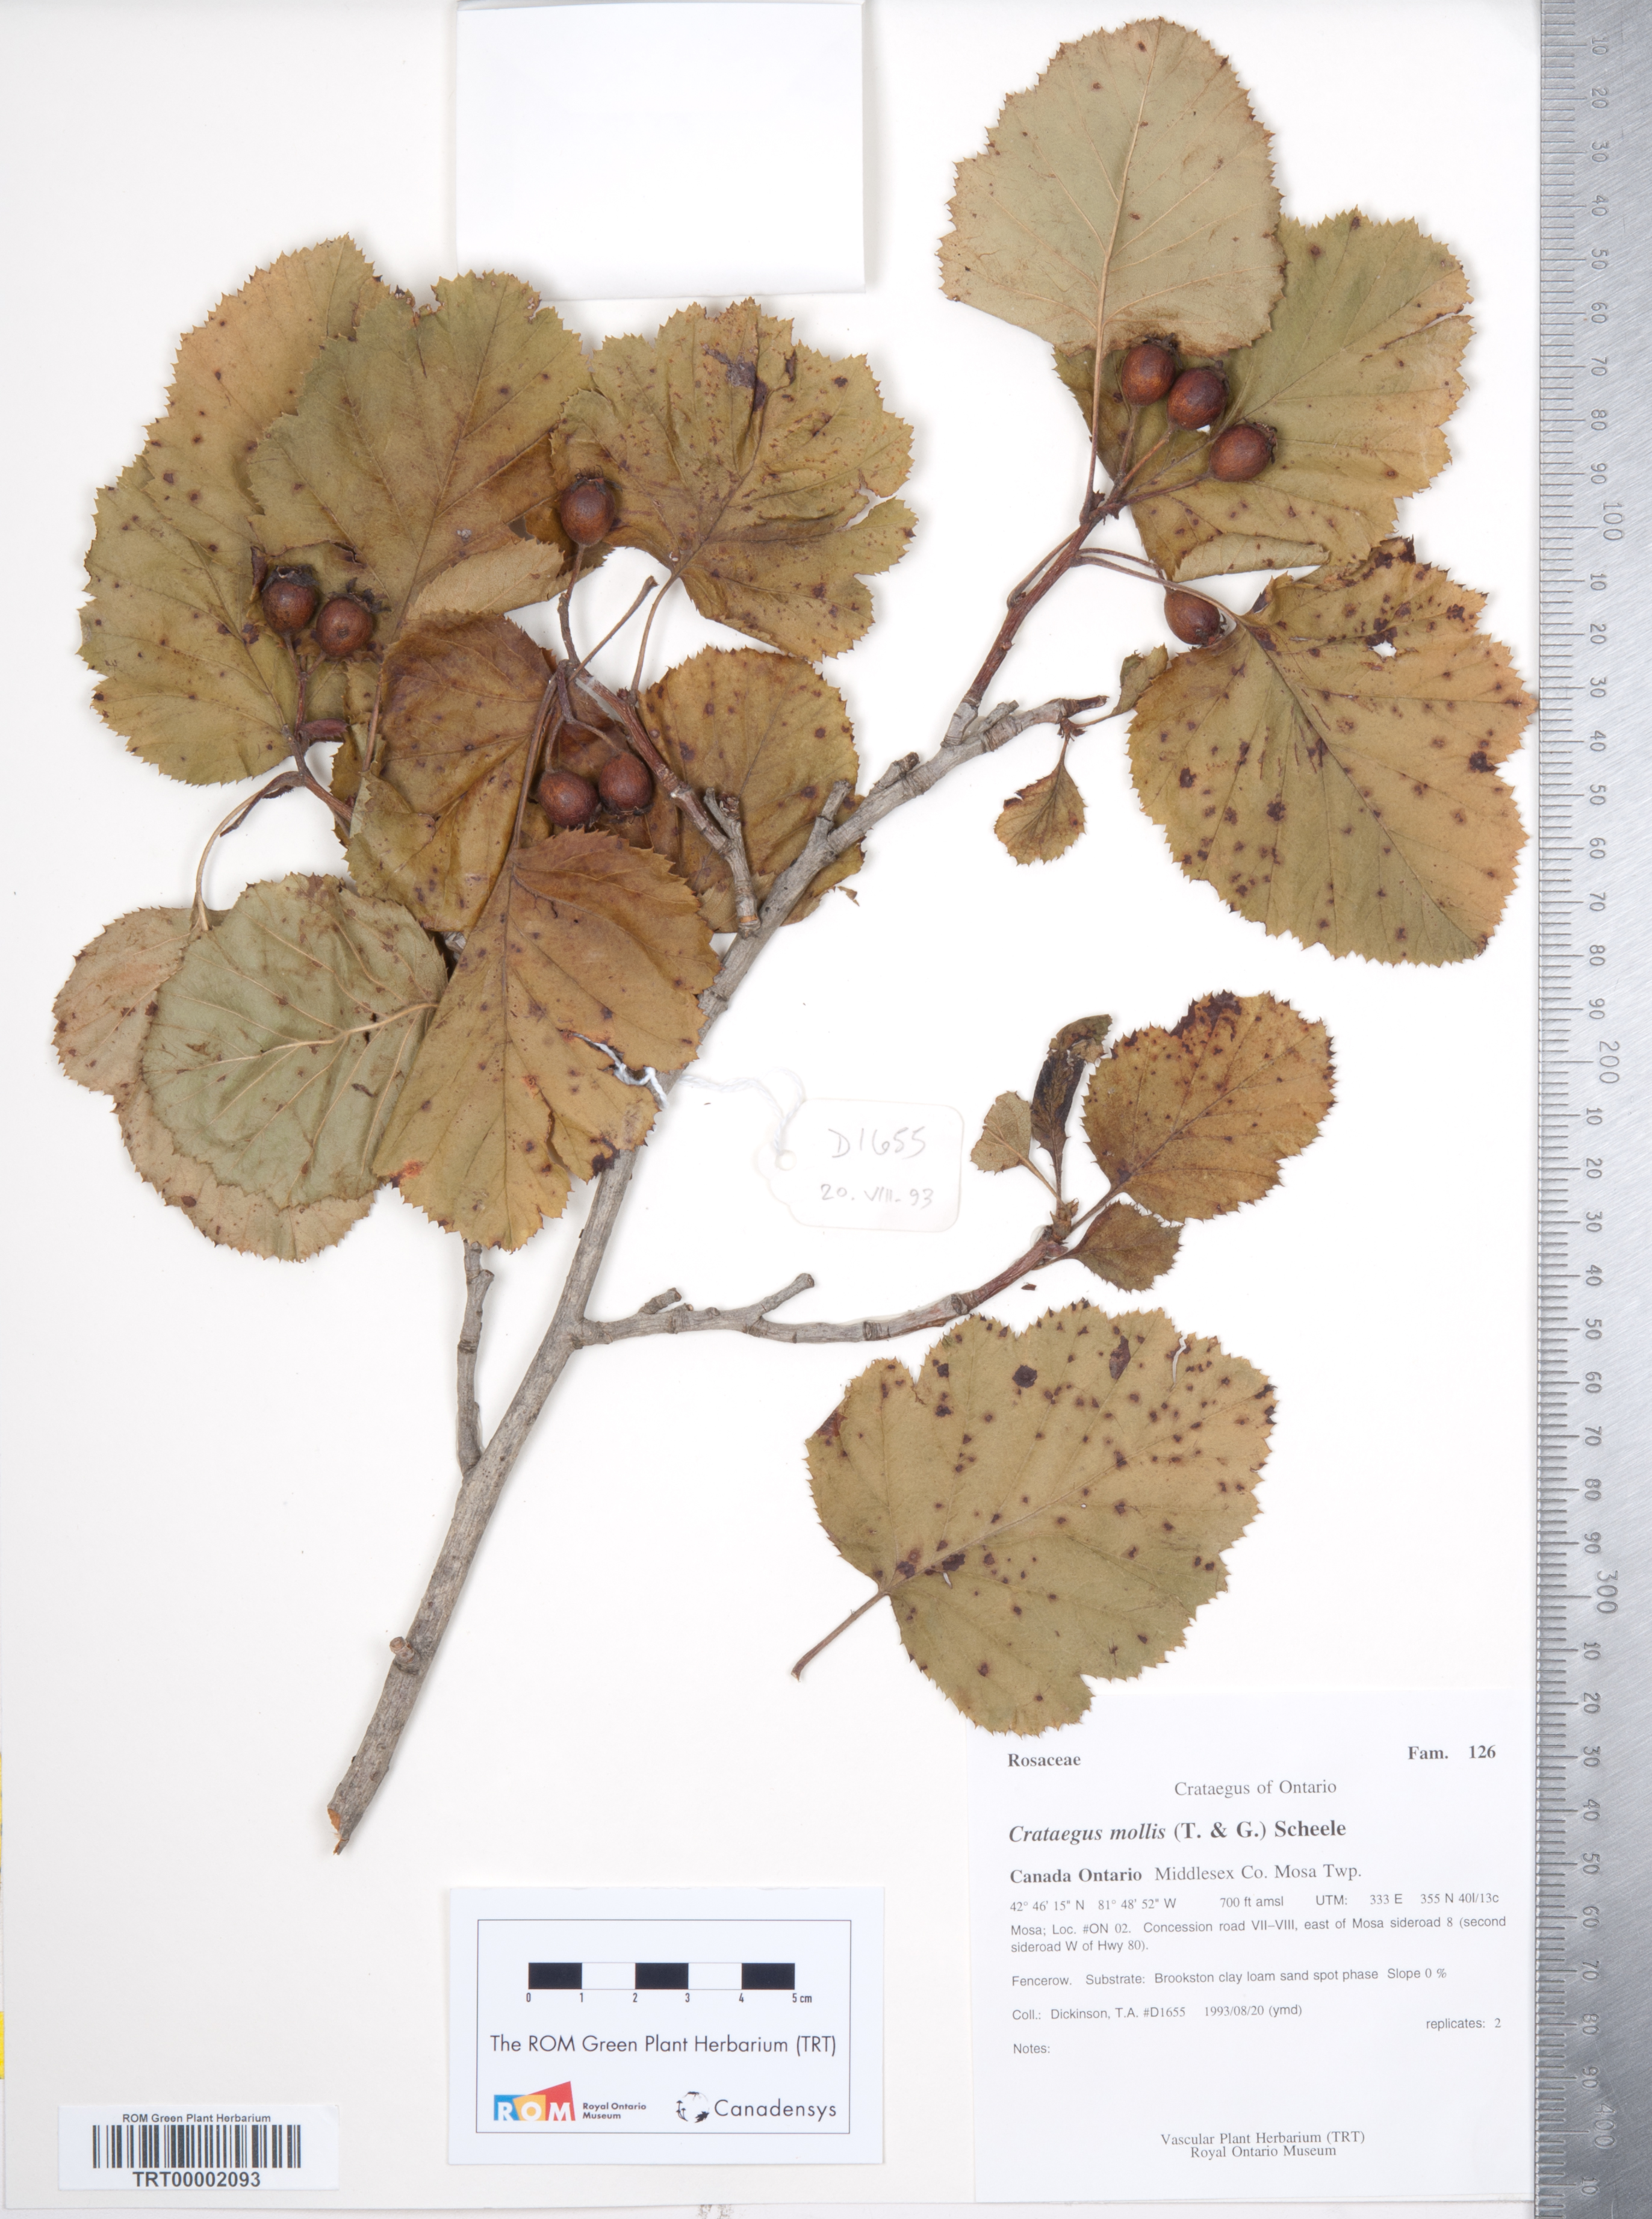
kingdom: Plantae
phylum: Tracheophyta
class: Magnoliopsida
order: Rosales
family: Rosaceae
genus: Crataegus
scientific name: Crataegus mollis
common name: Downy hawthorn
